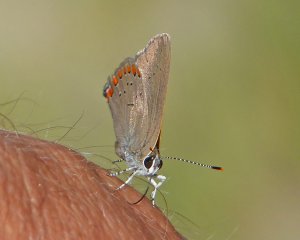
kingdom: Animalia
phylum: Arthropoda
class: Insecta
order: Lepidoptera
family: Lycaenidae
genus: Harkenclenus
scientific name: Harkenclenus titus
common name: Coral Hairstreak
